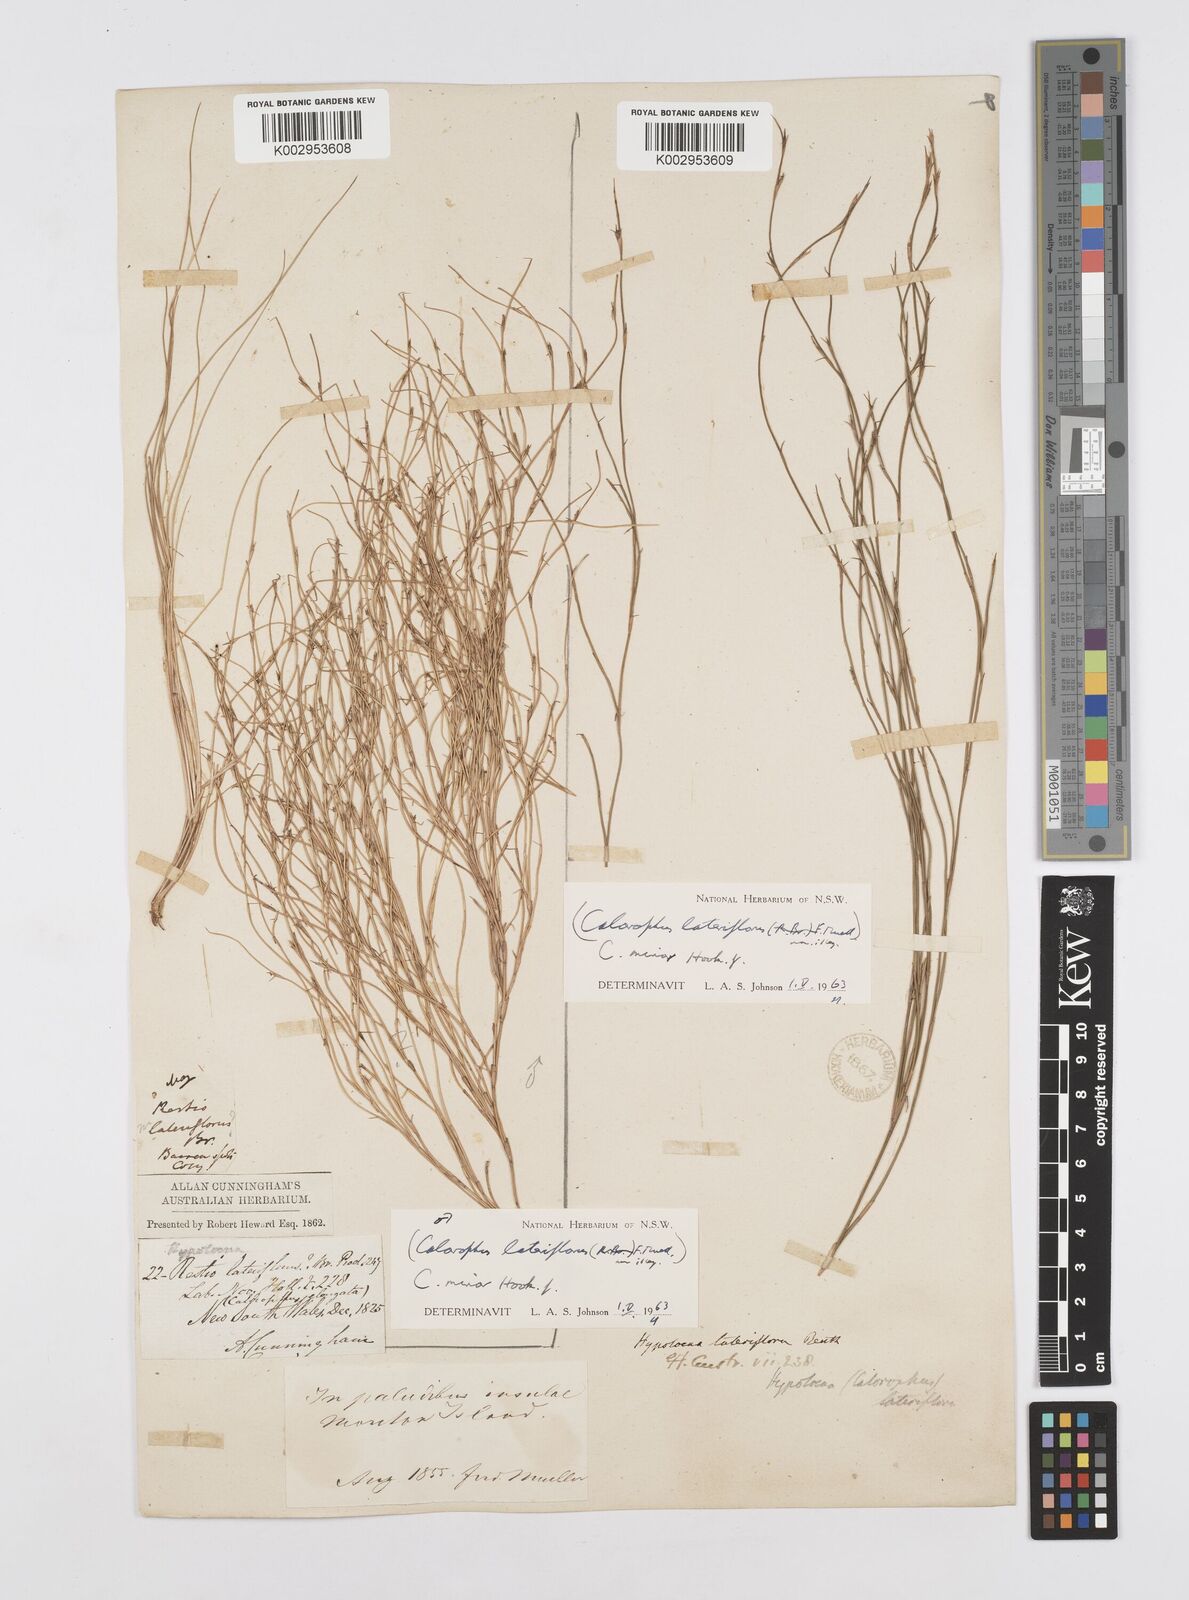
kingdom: Plantae
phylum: Tracheophyta
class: Liliopsida
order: Poales
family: Restionaceae
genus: Empodisma
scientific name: Empodisma minus
